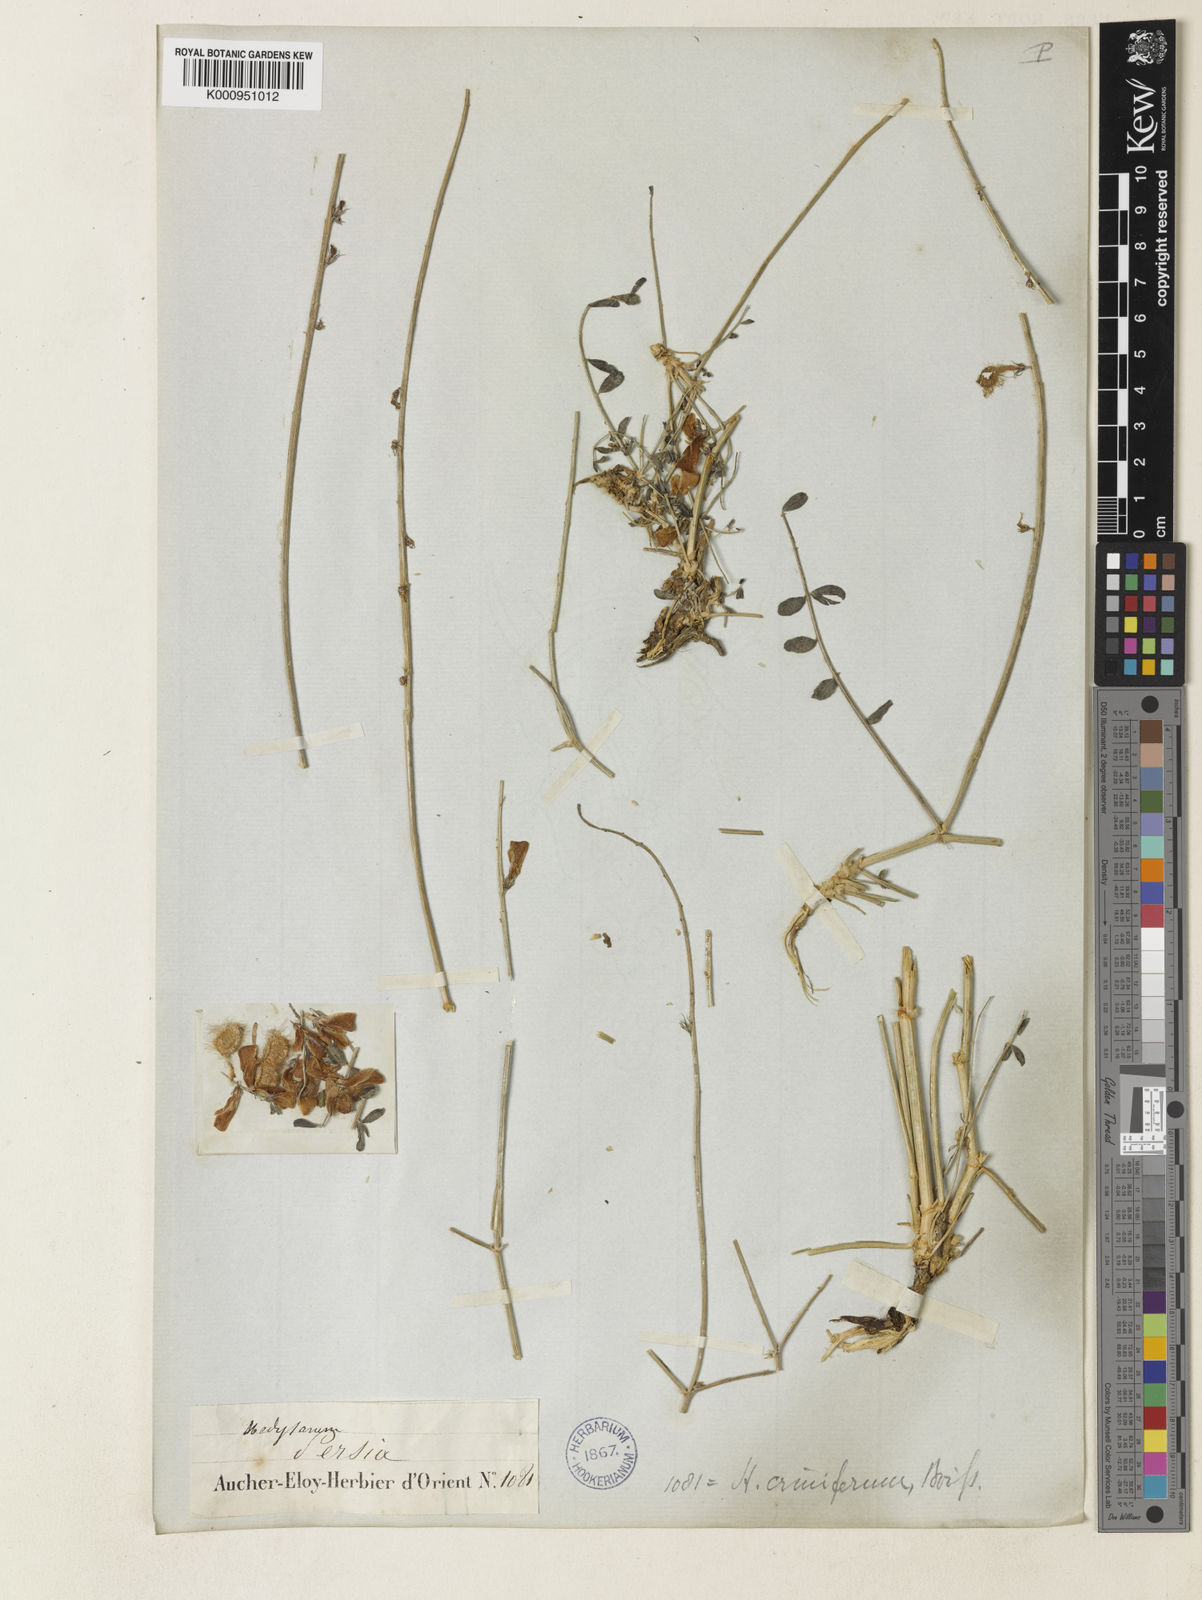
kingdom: Plantae
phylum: Tracheophyta
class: Magnoliopsida
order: Fabales
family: Fabaceae
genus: Hedysarum
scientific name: Hedysarum criniferum
